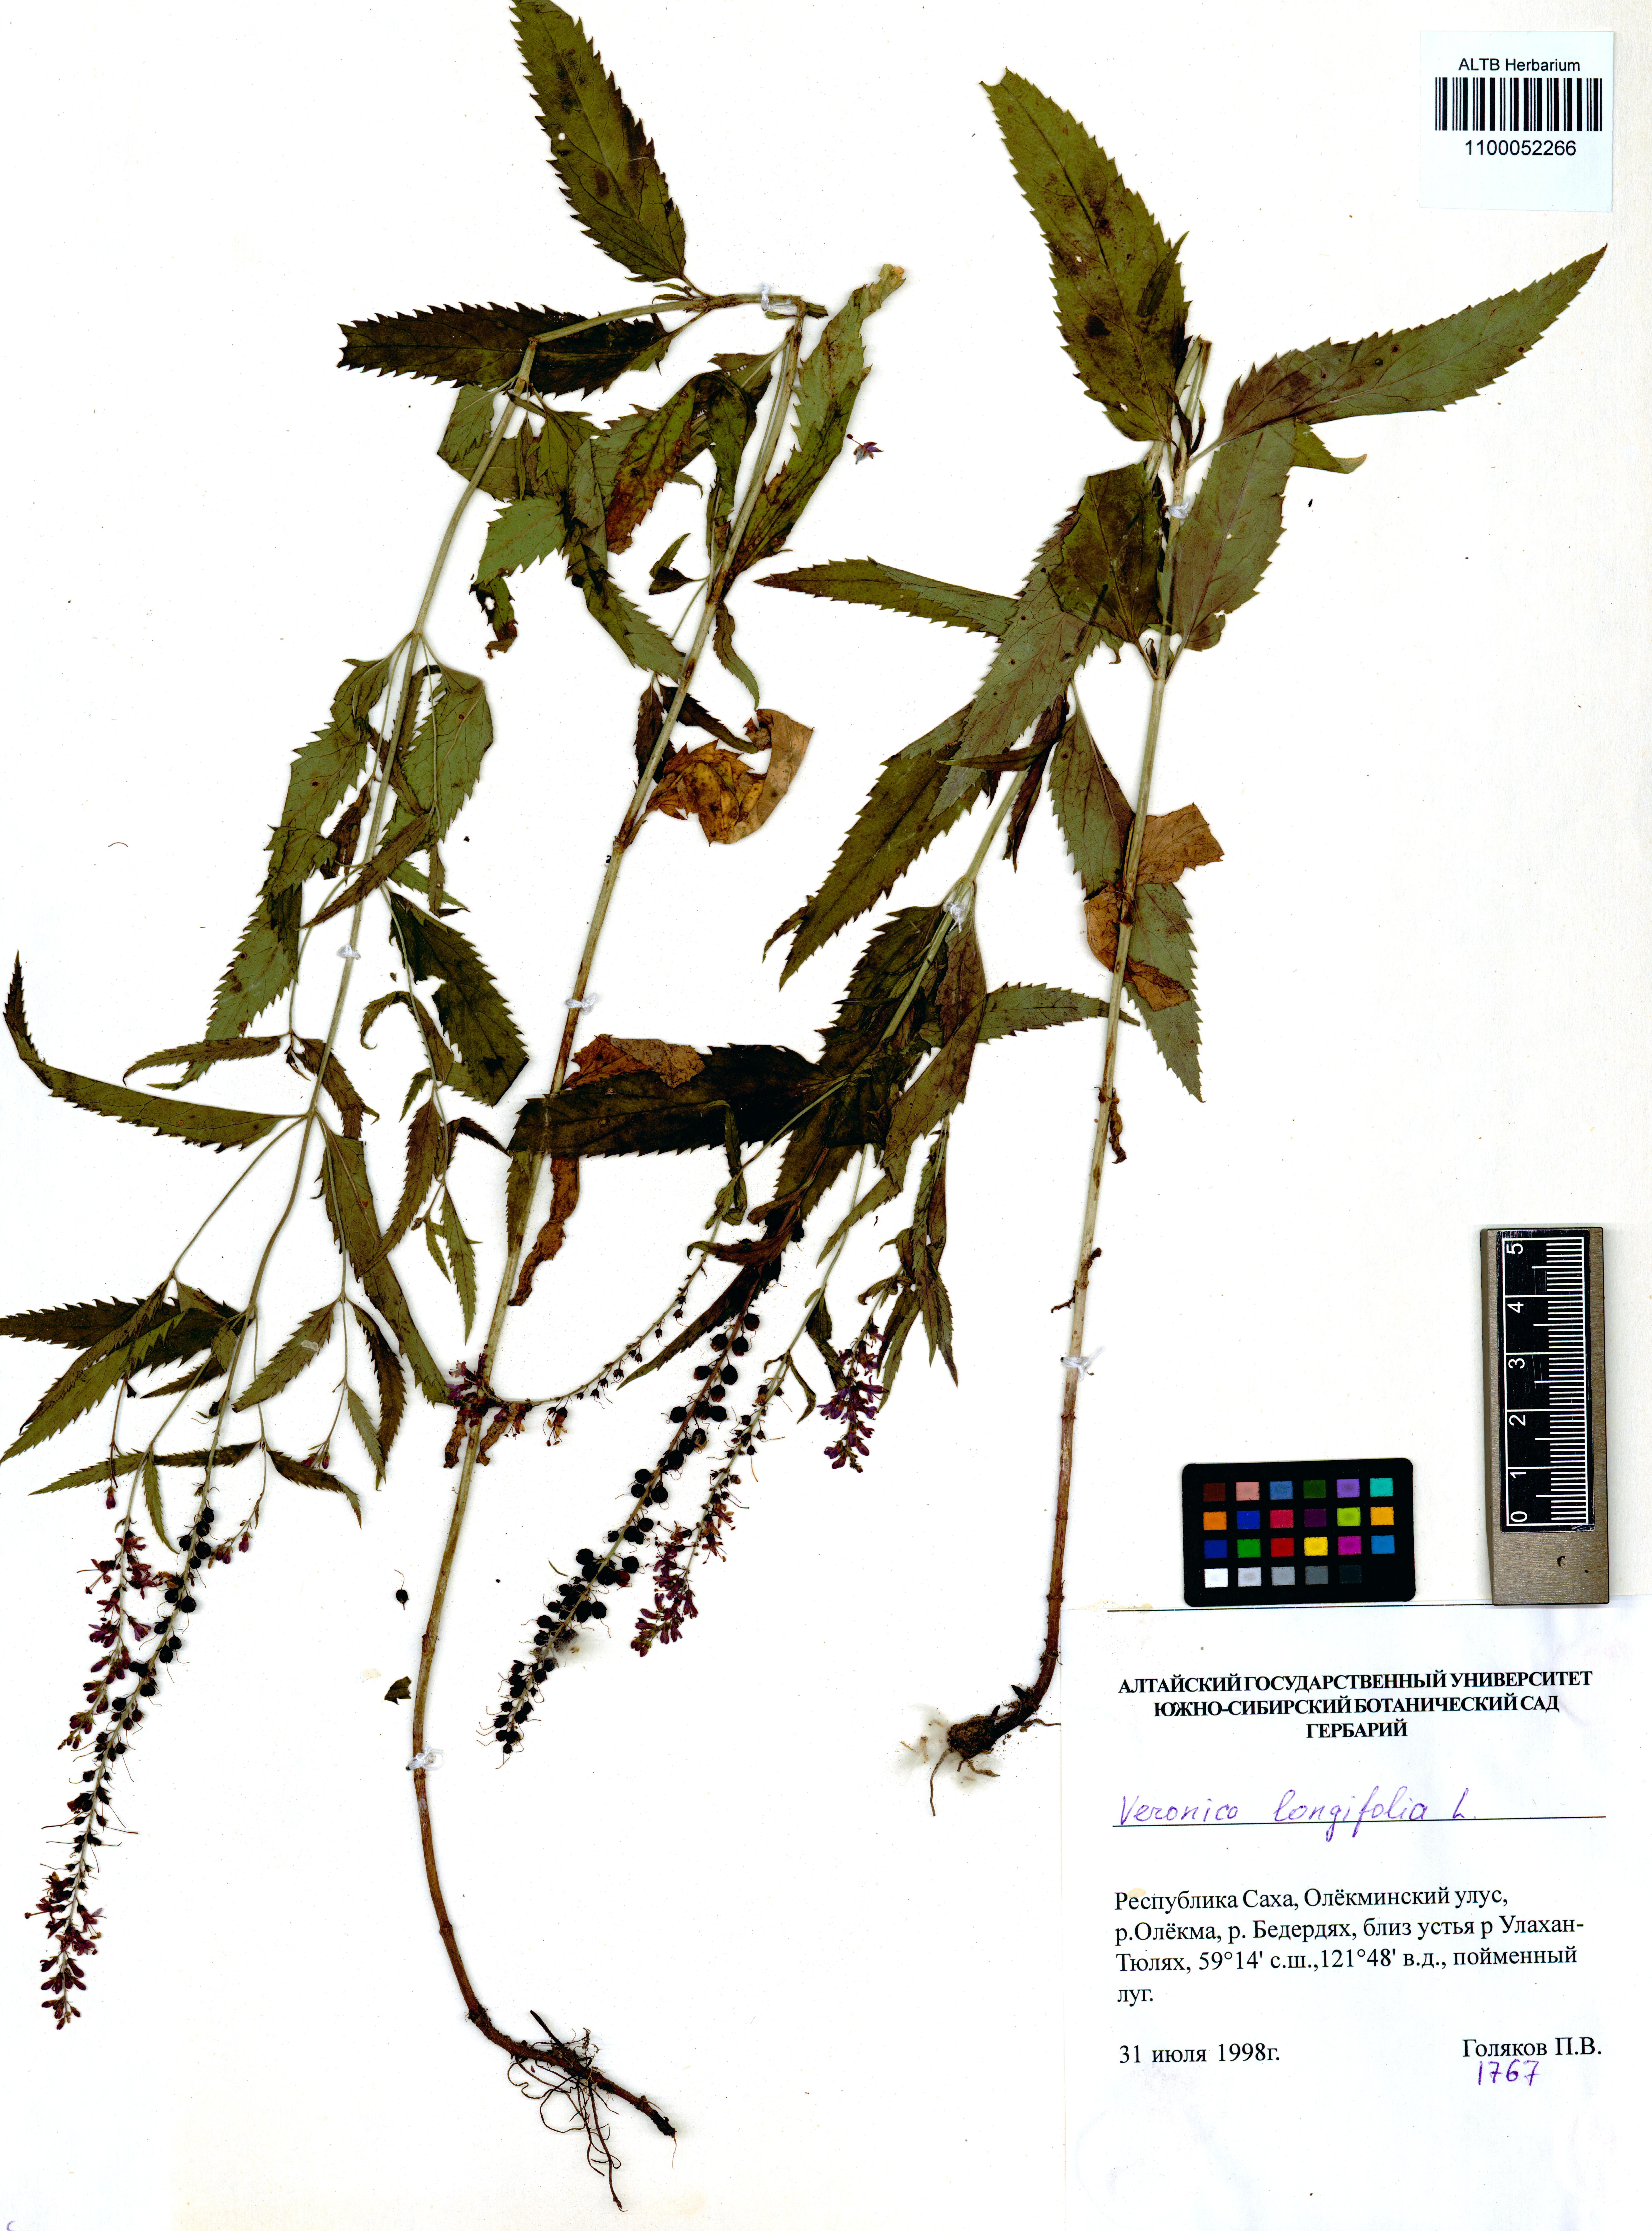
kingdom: Plantae
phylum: Tracheophyta
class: Magnoliopsida
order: Lamiales
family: Plantaginaceae
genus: Veronica
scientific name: Veronica longifolia
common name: Garden speedwell
